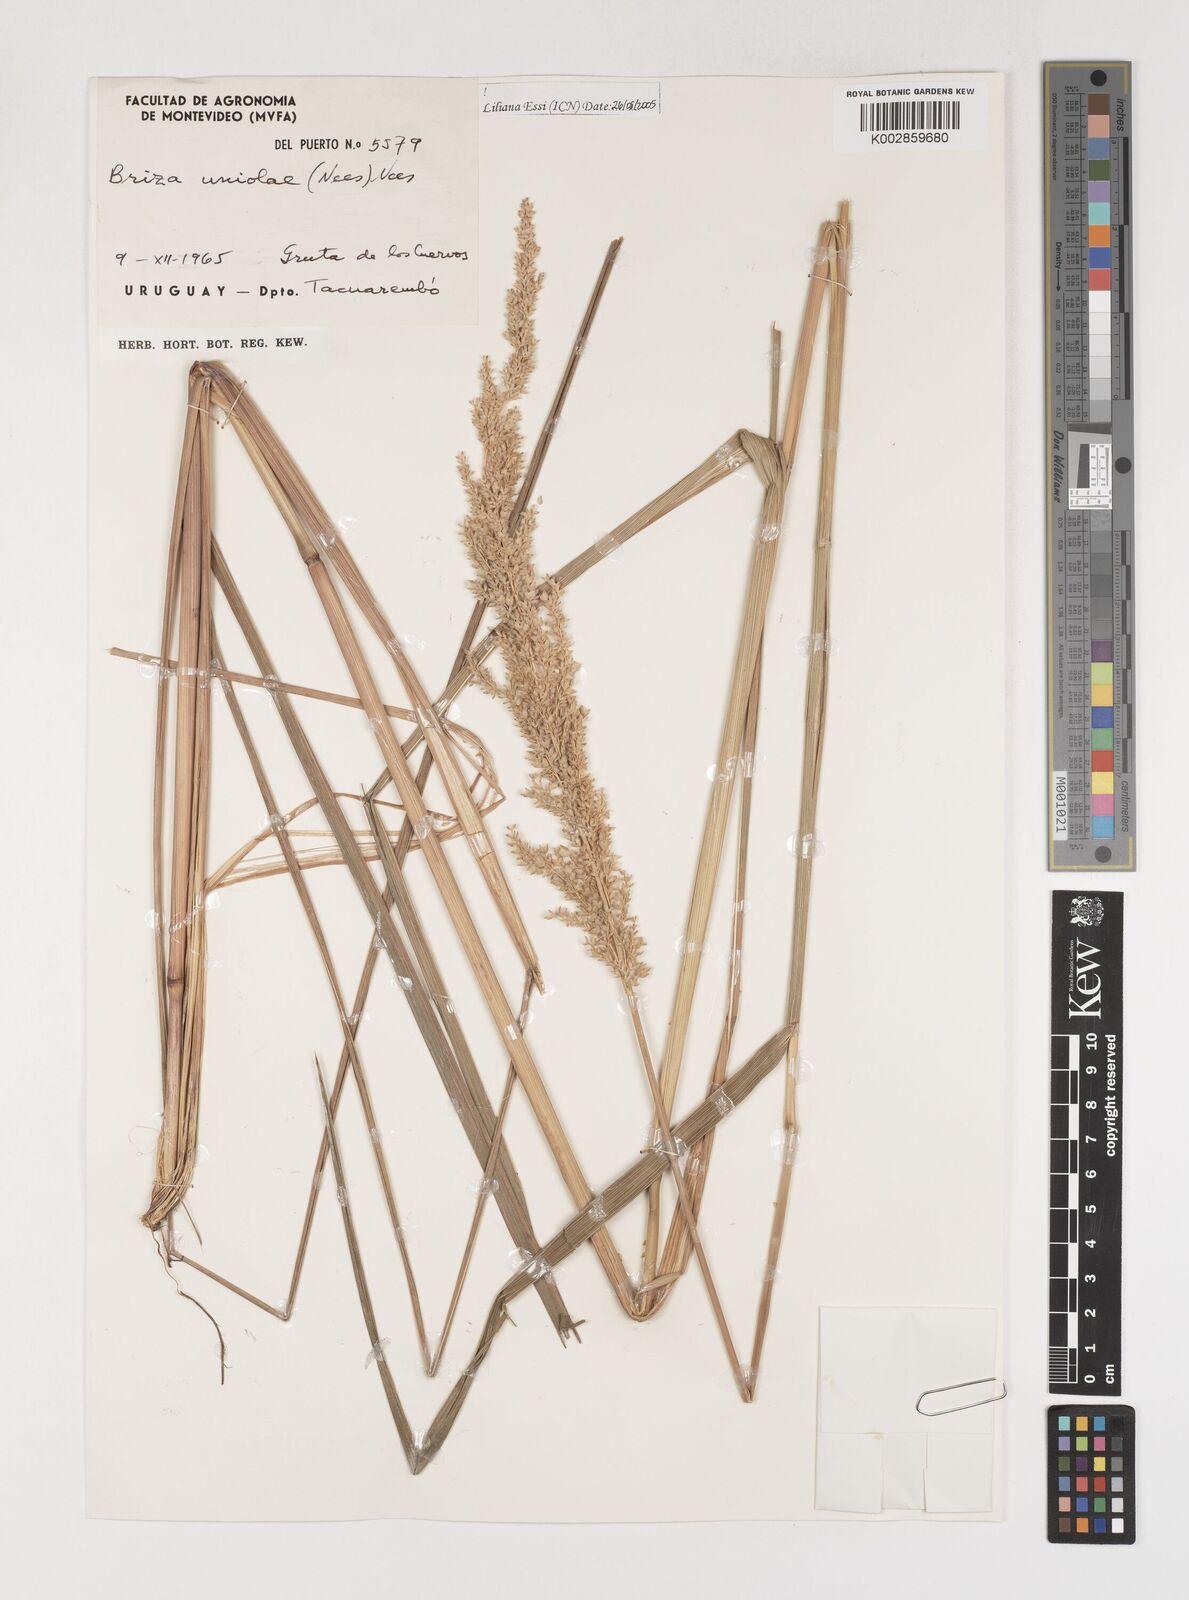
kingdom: Plantae
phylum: Tracheophyta
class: Liliopsida
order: Poales
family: Poaceae
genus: Poidium
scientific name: Poidium uniolae
